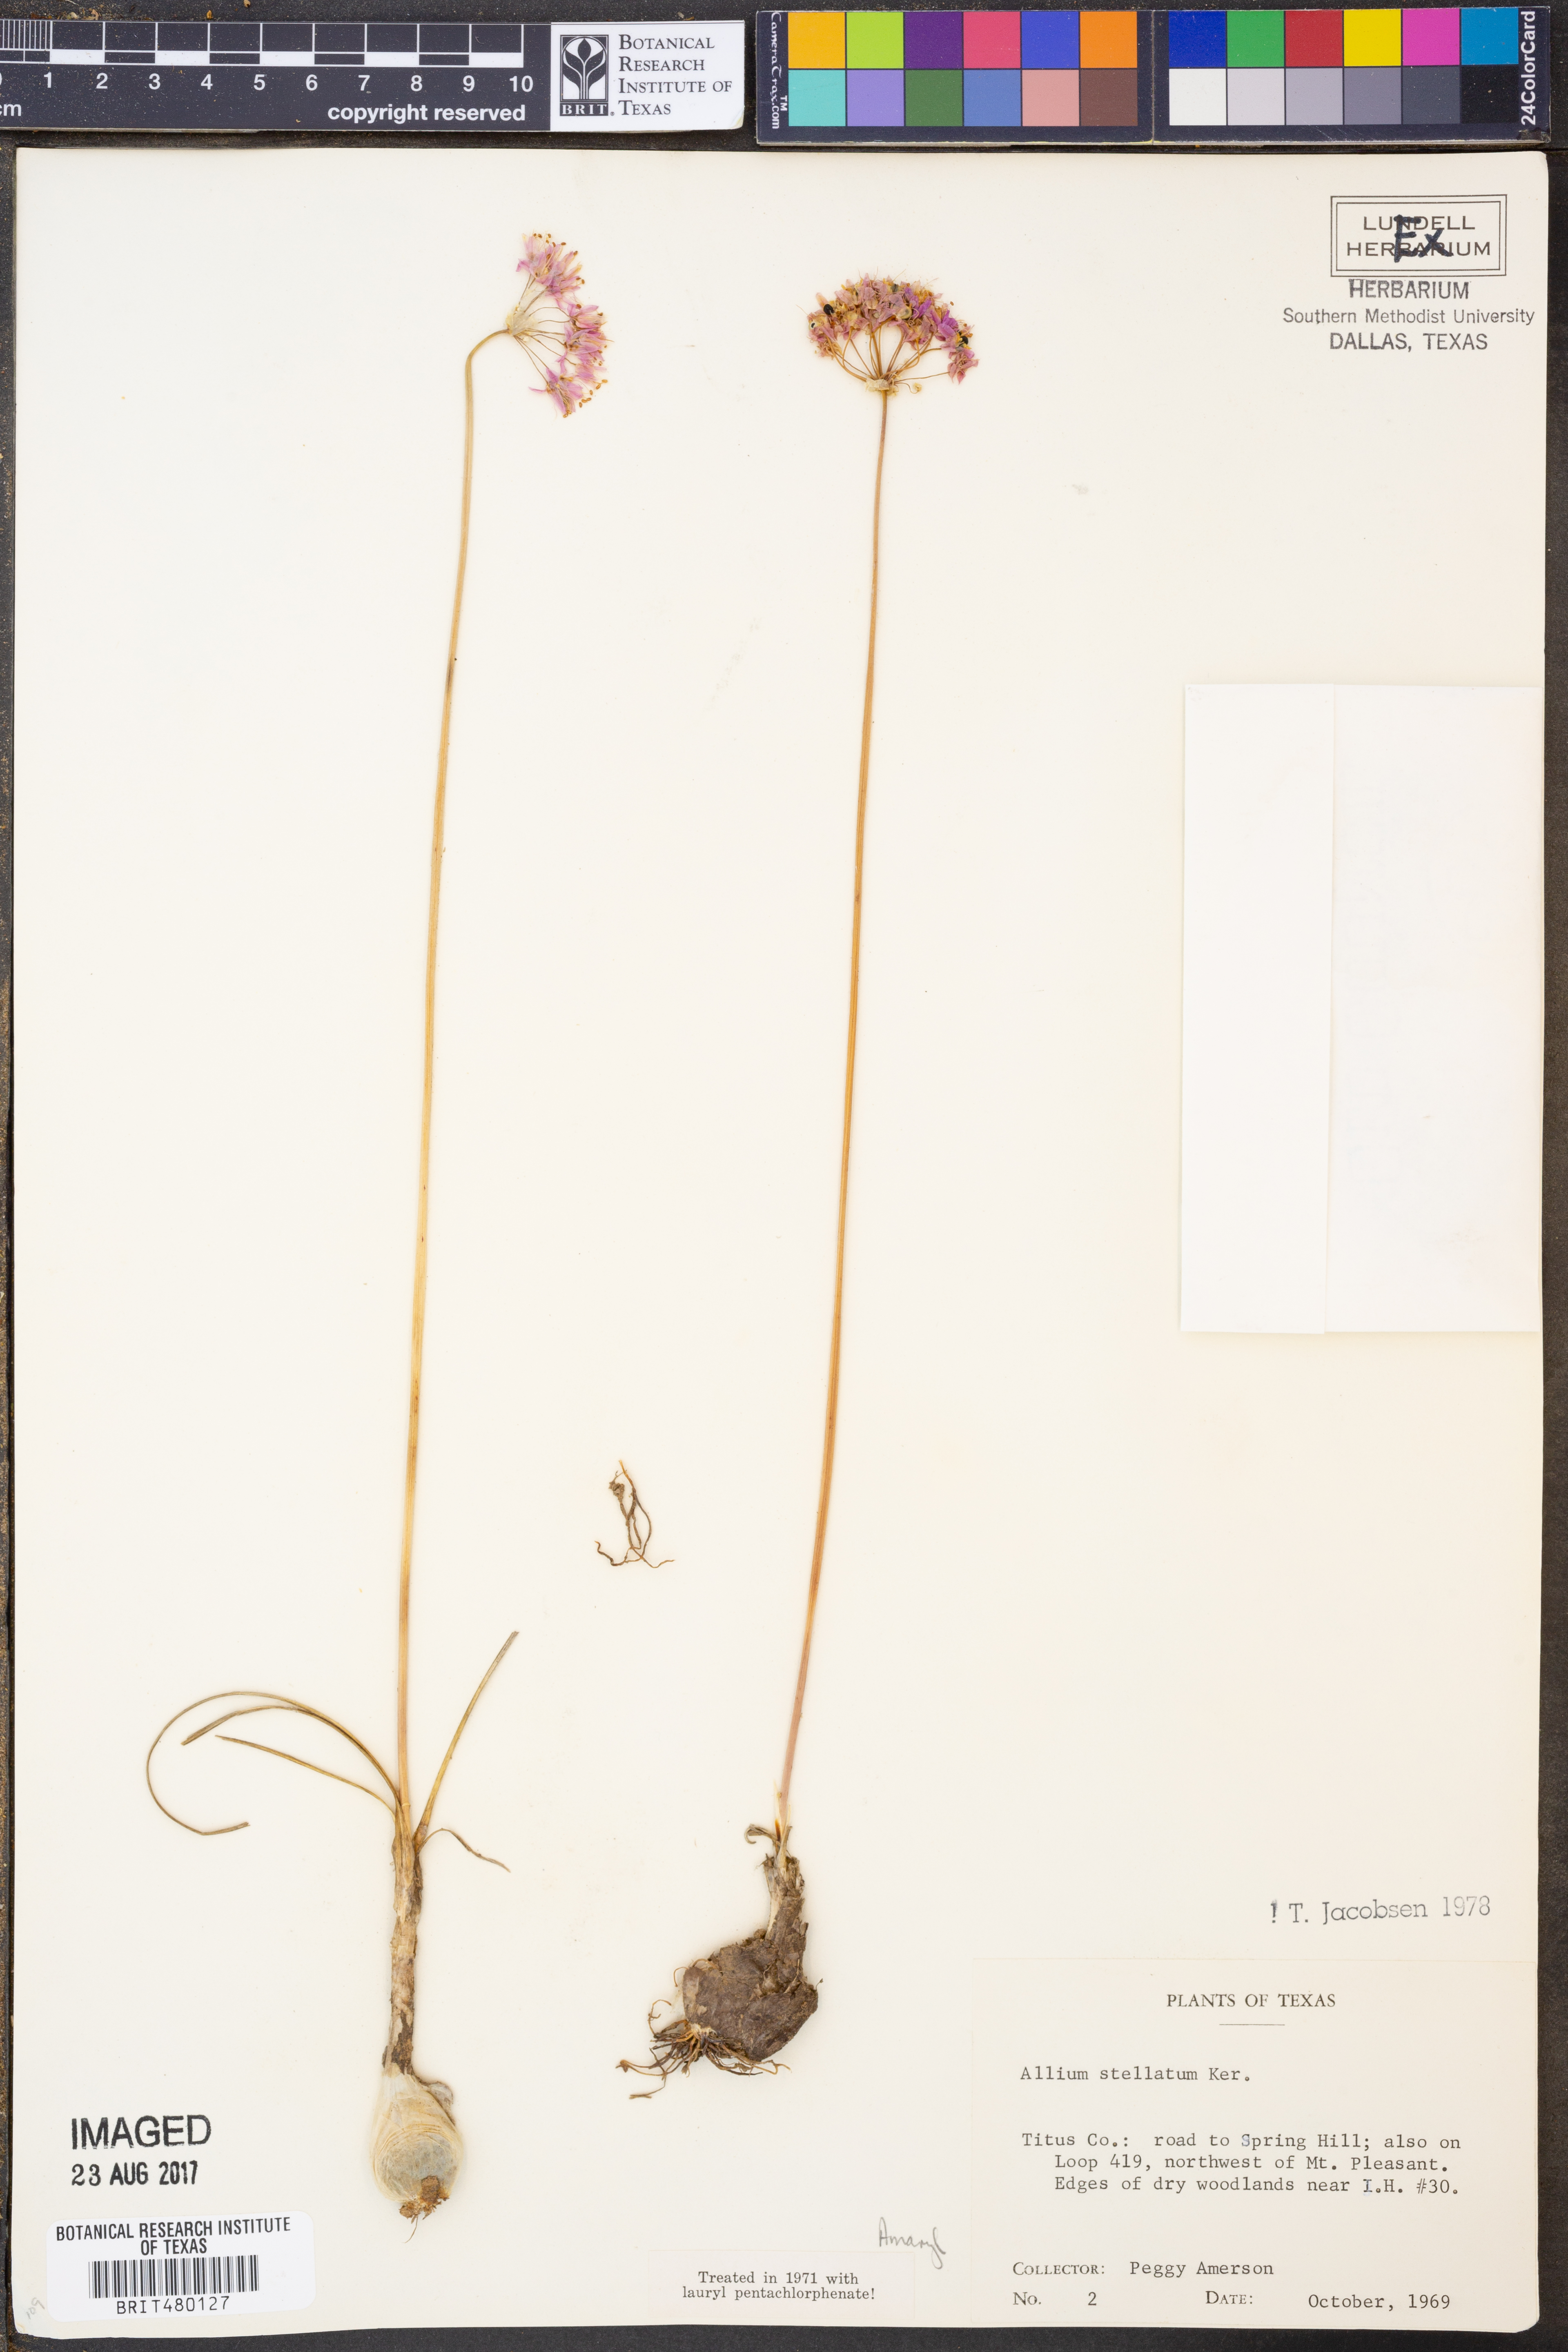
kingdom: Plantae
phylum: Tracheophyta
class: Liliopsida
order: Asparagales
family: Amaryllidaceae
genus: Allium
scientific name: Allium stellatum
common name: Autumn onion
